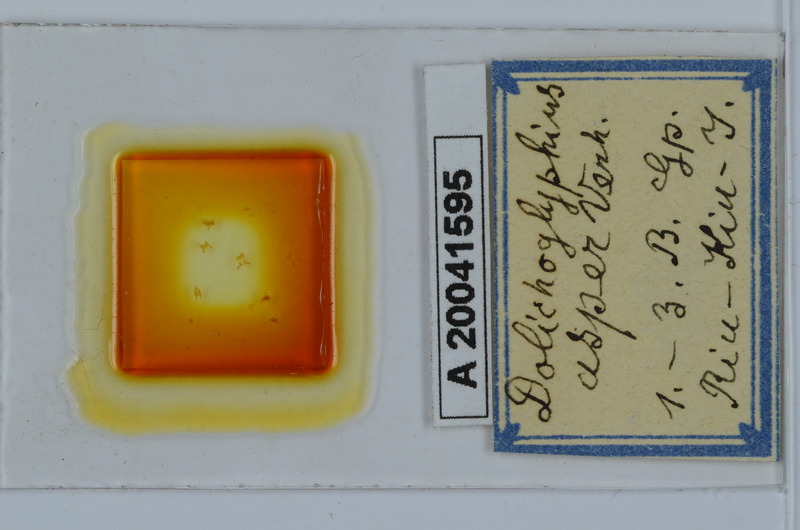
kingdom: Animalia
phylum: Arthropoda
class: Diplopoda
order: Spirostreptida
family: Cambalopsidae
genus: Dolichoglyphius
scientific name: Dolichoglyphius asper
